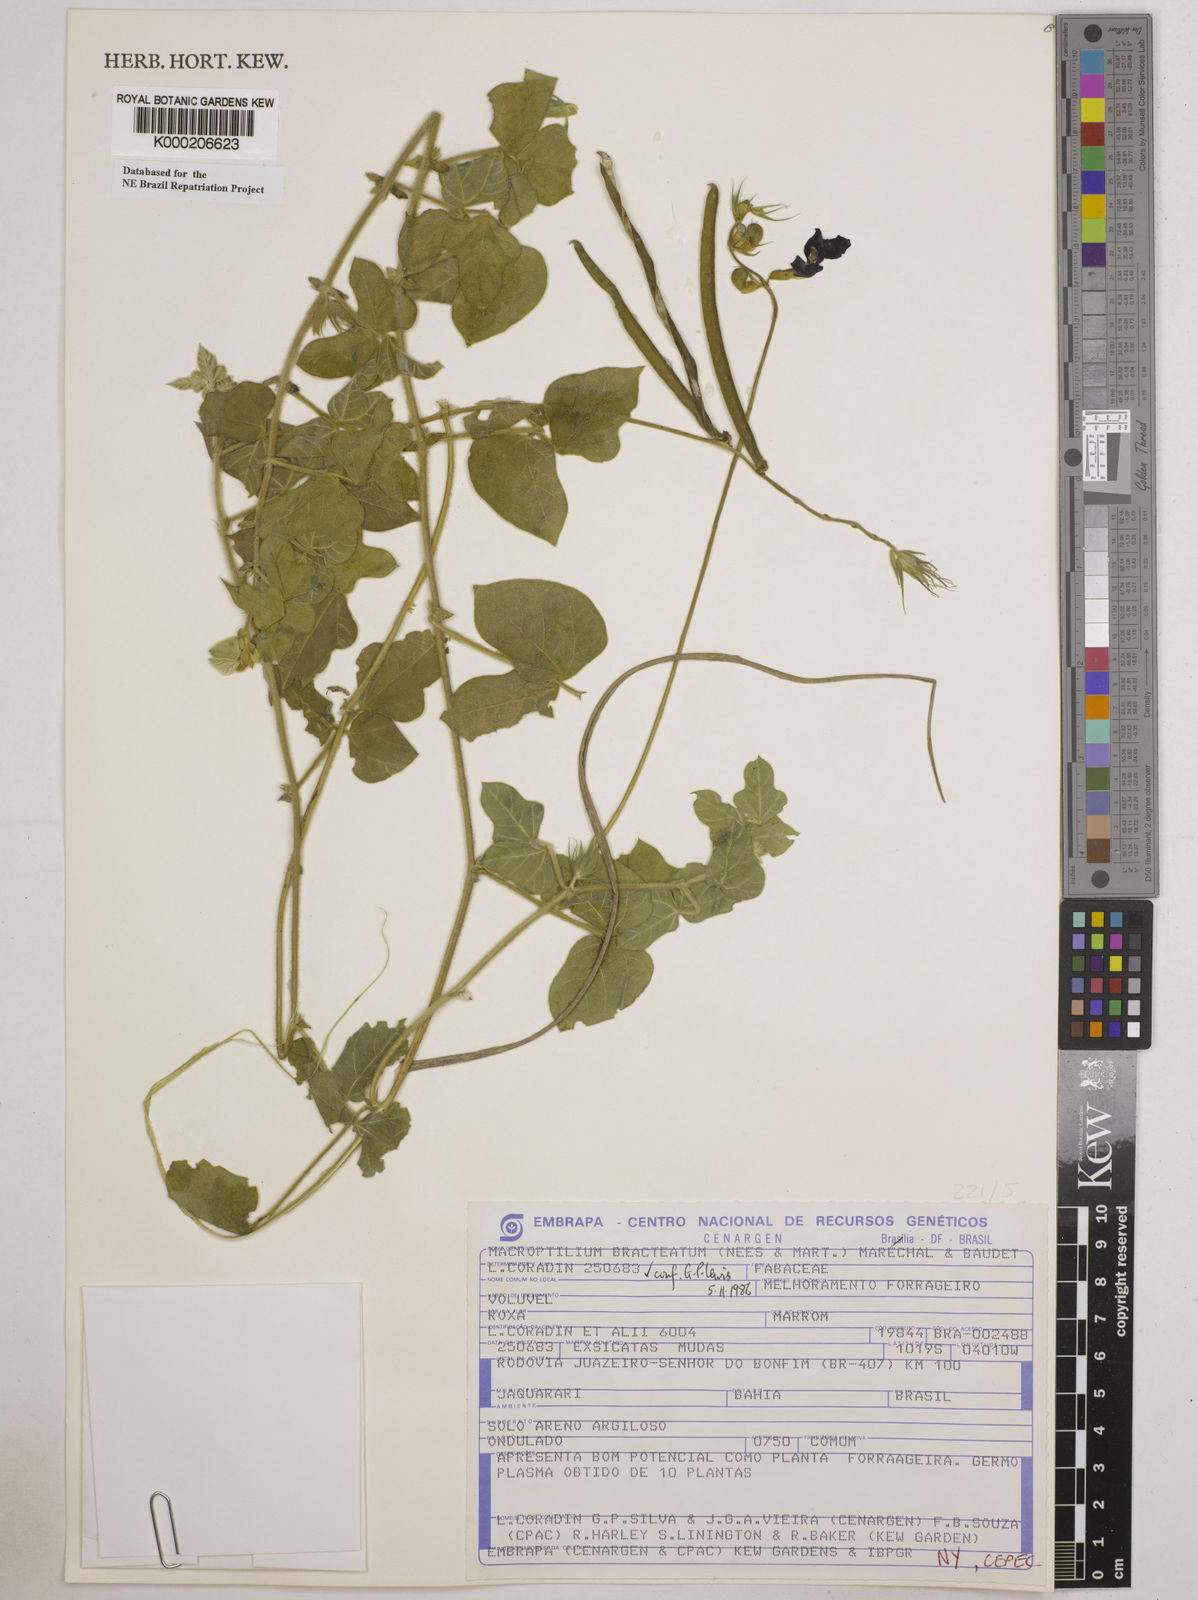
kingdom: Plantae
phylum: Tracheophyta
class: Magnoliopsida
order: Fabales
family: Fabaceae
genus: Macroptilium
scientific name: Macroptilium
